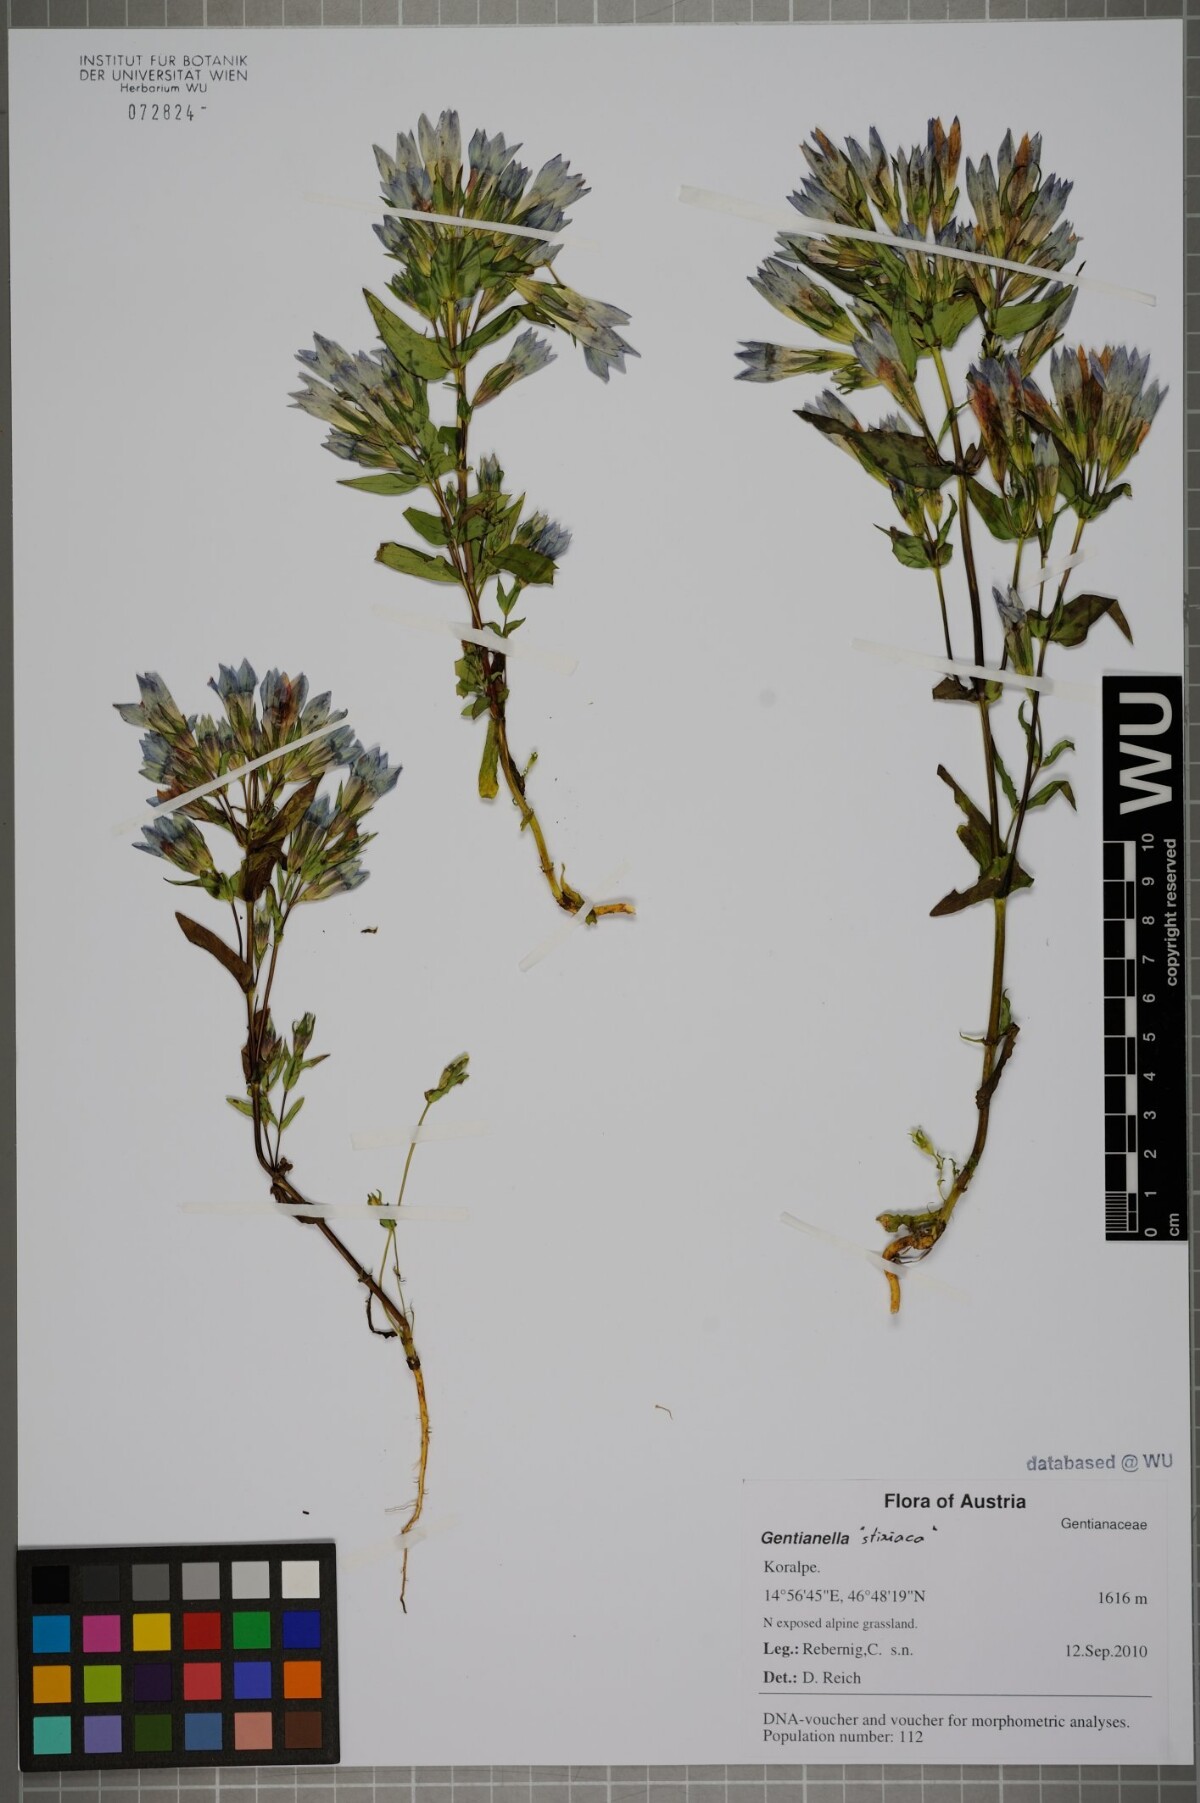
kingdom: Plantae
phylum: Tracheophyta
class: Magnoliopsida
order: Gentianales
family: Gentianaceae
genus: Gentianella
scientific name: Gentianella
